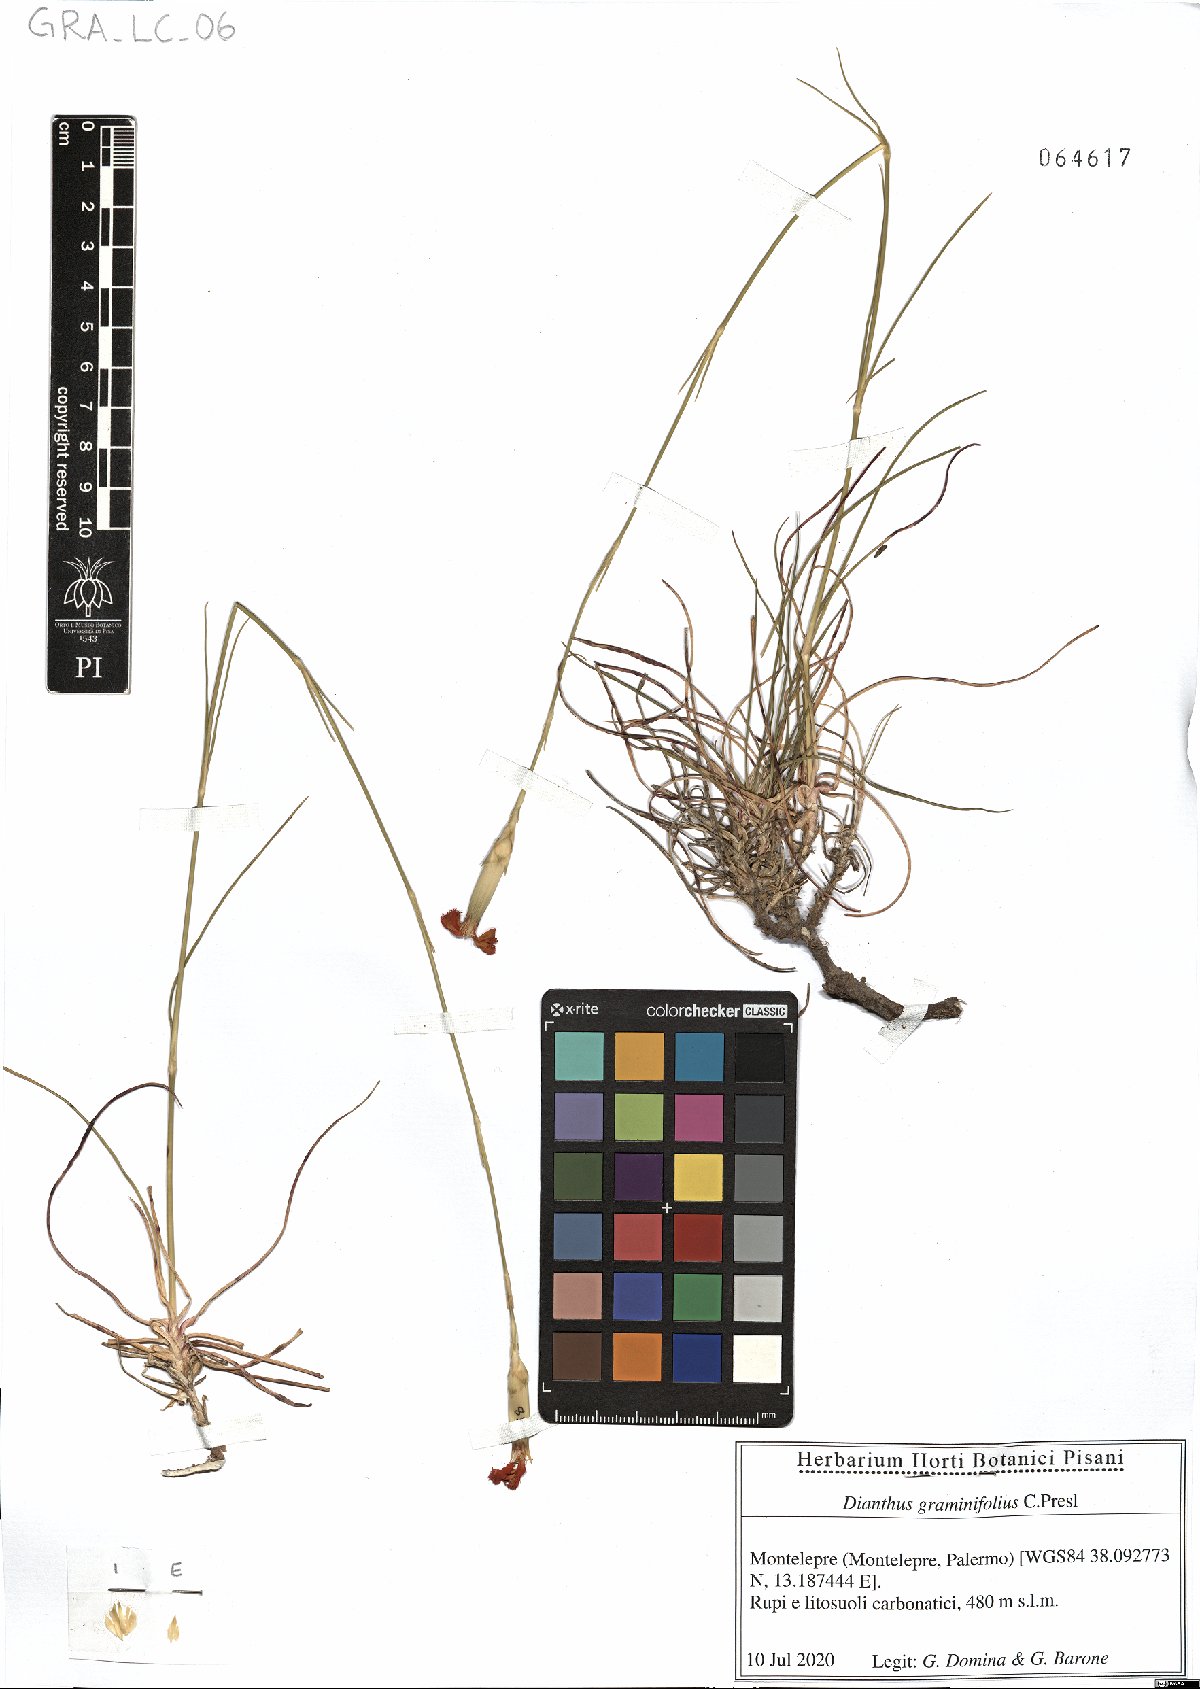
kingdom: Plantae
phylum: Tracheophyta
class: Magnoliopsida
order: Caryophyllales
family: Caryophyllaceae
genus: Dianthus
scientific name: Dianthus graminifolius
